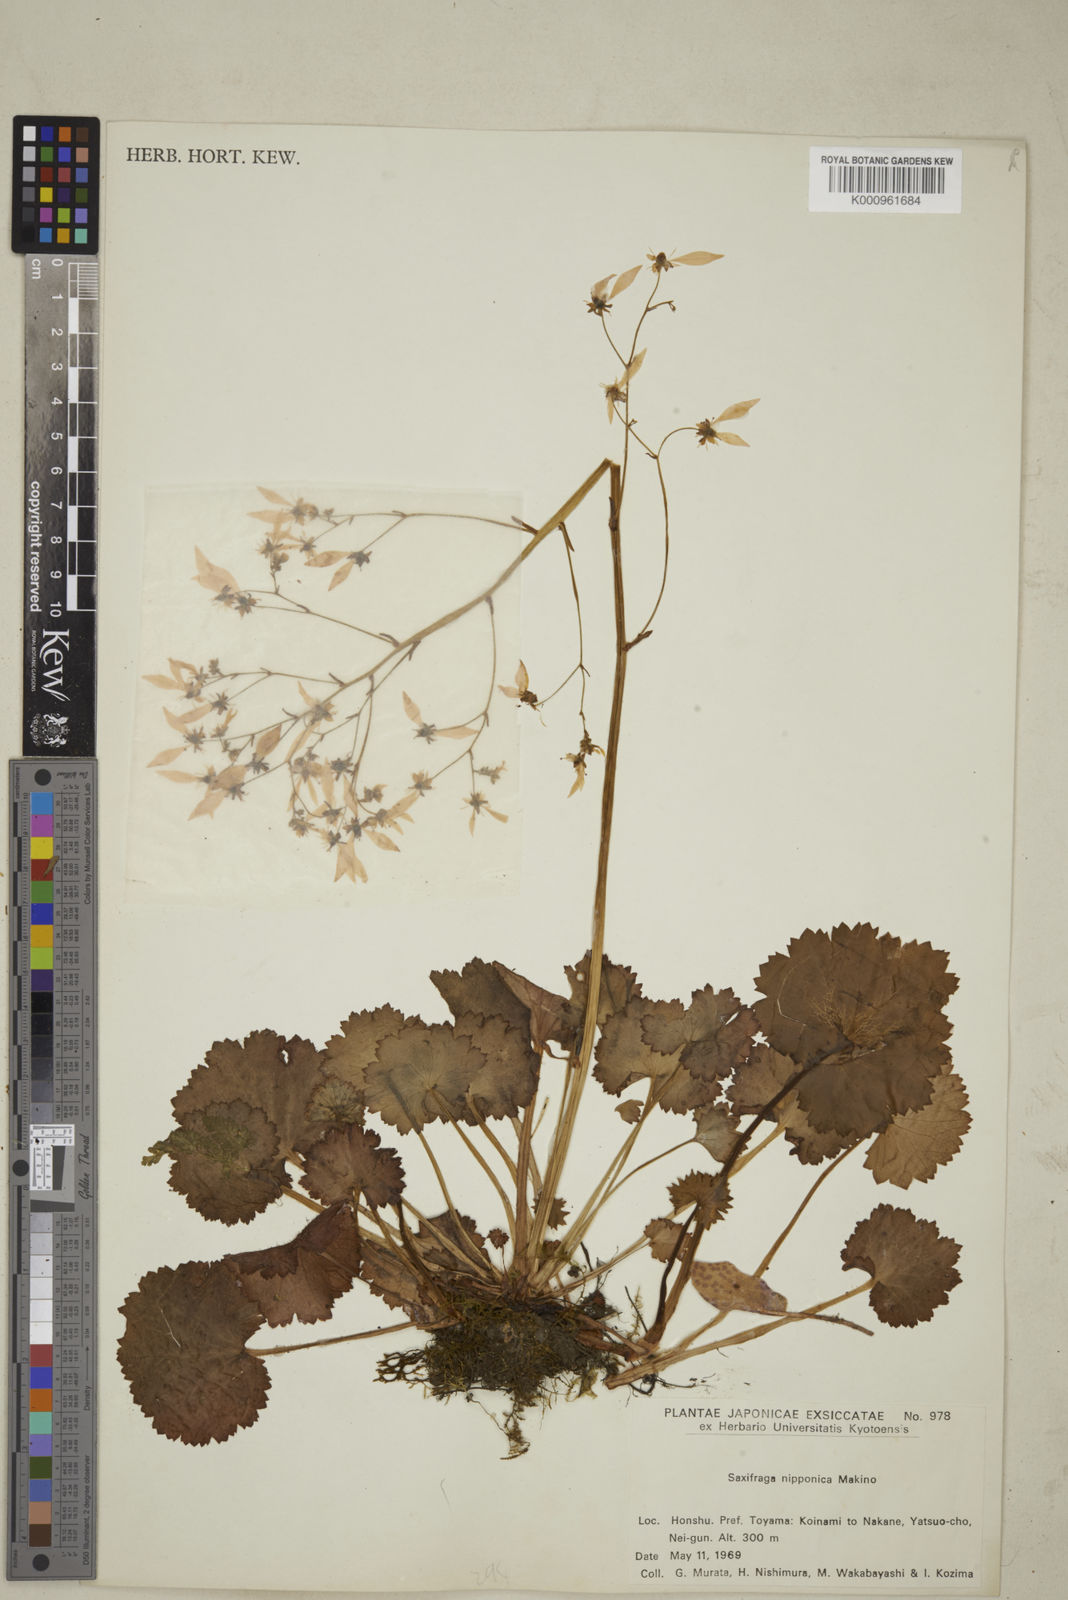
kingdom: Plantae
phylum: Tracheophyta
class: Magnoliopsida
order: Saxifragales
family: Saxifragaceae
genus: Saxifraga
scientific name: Saxifraga nipponica
